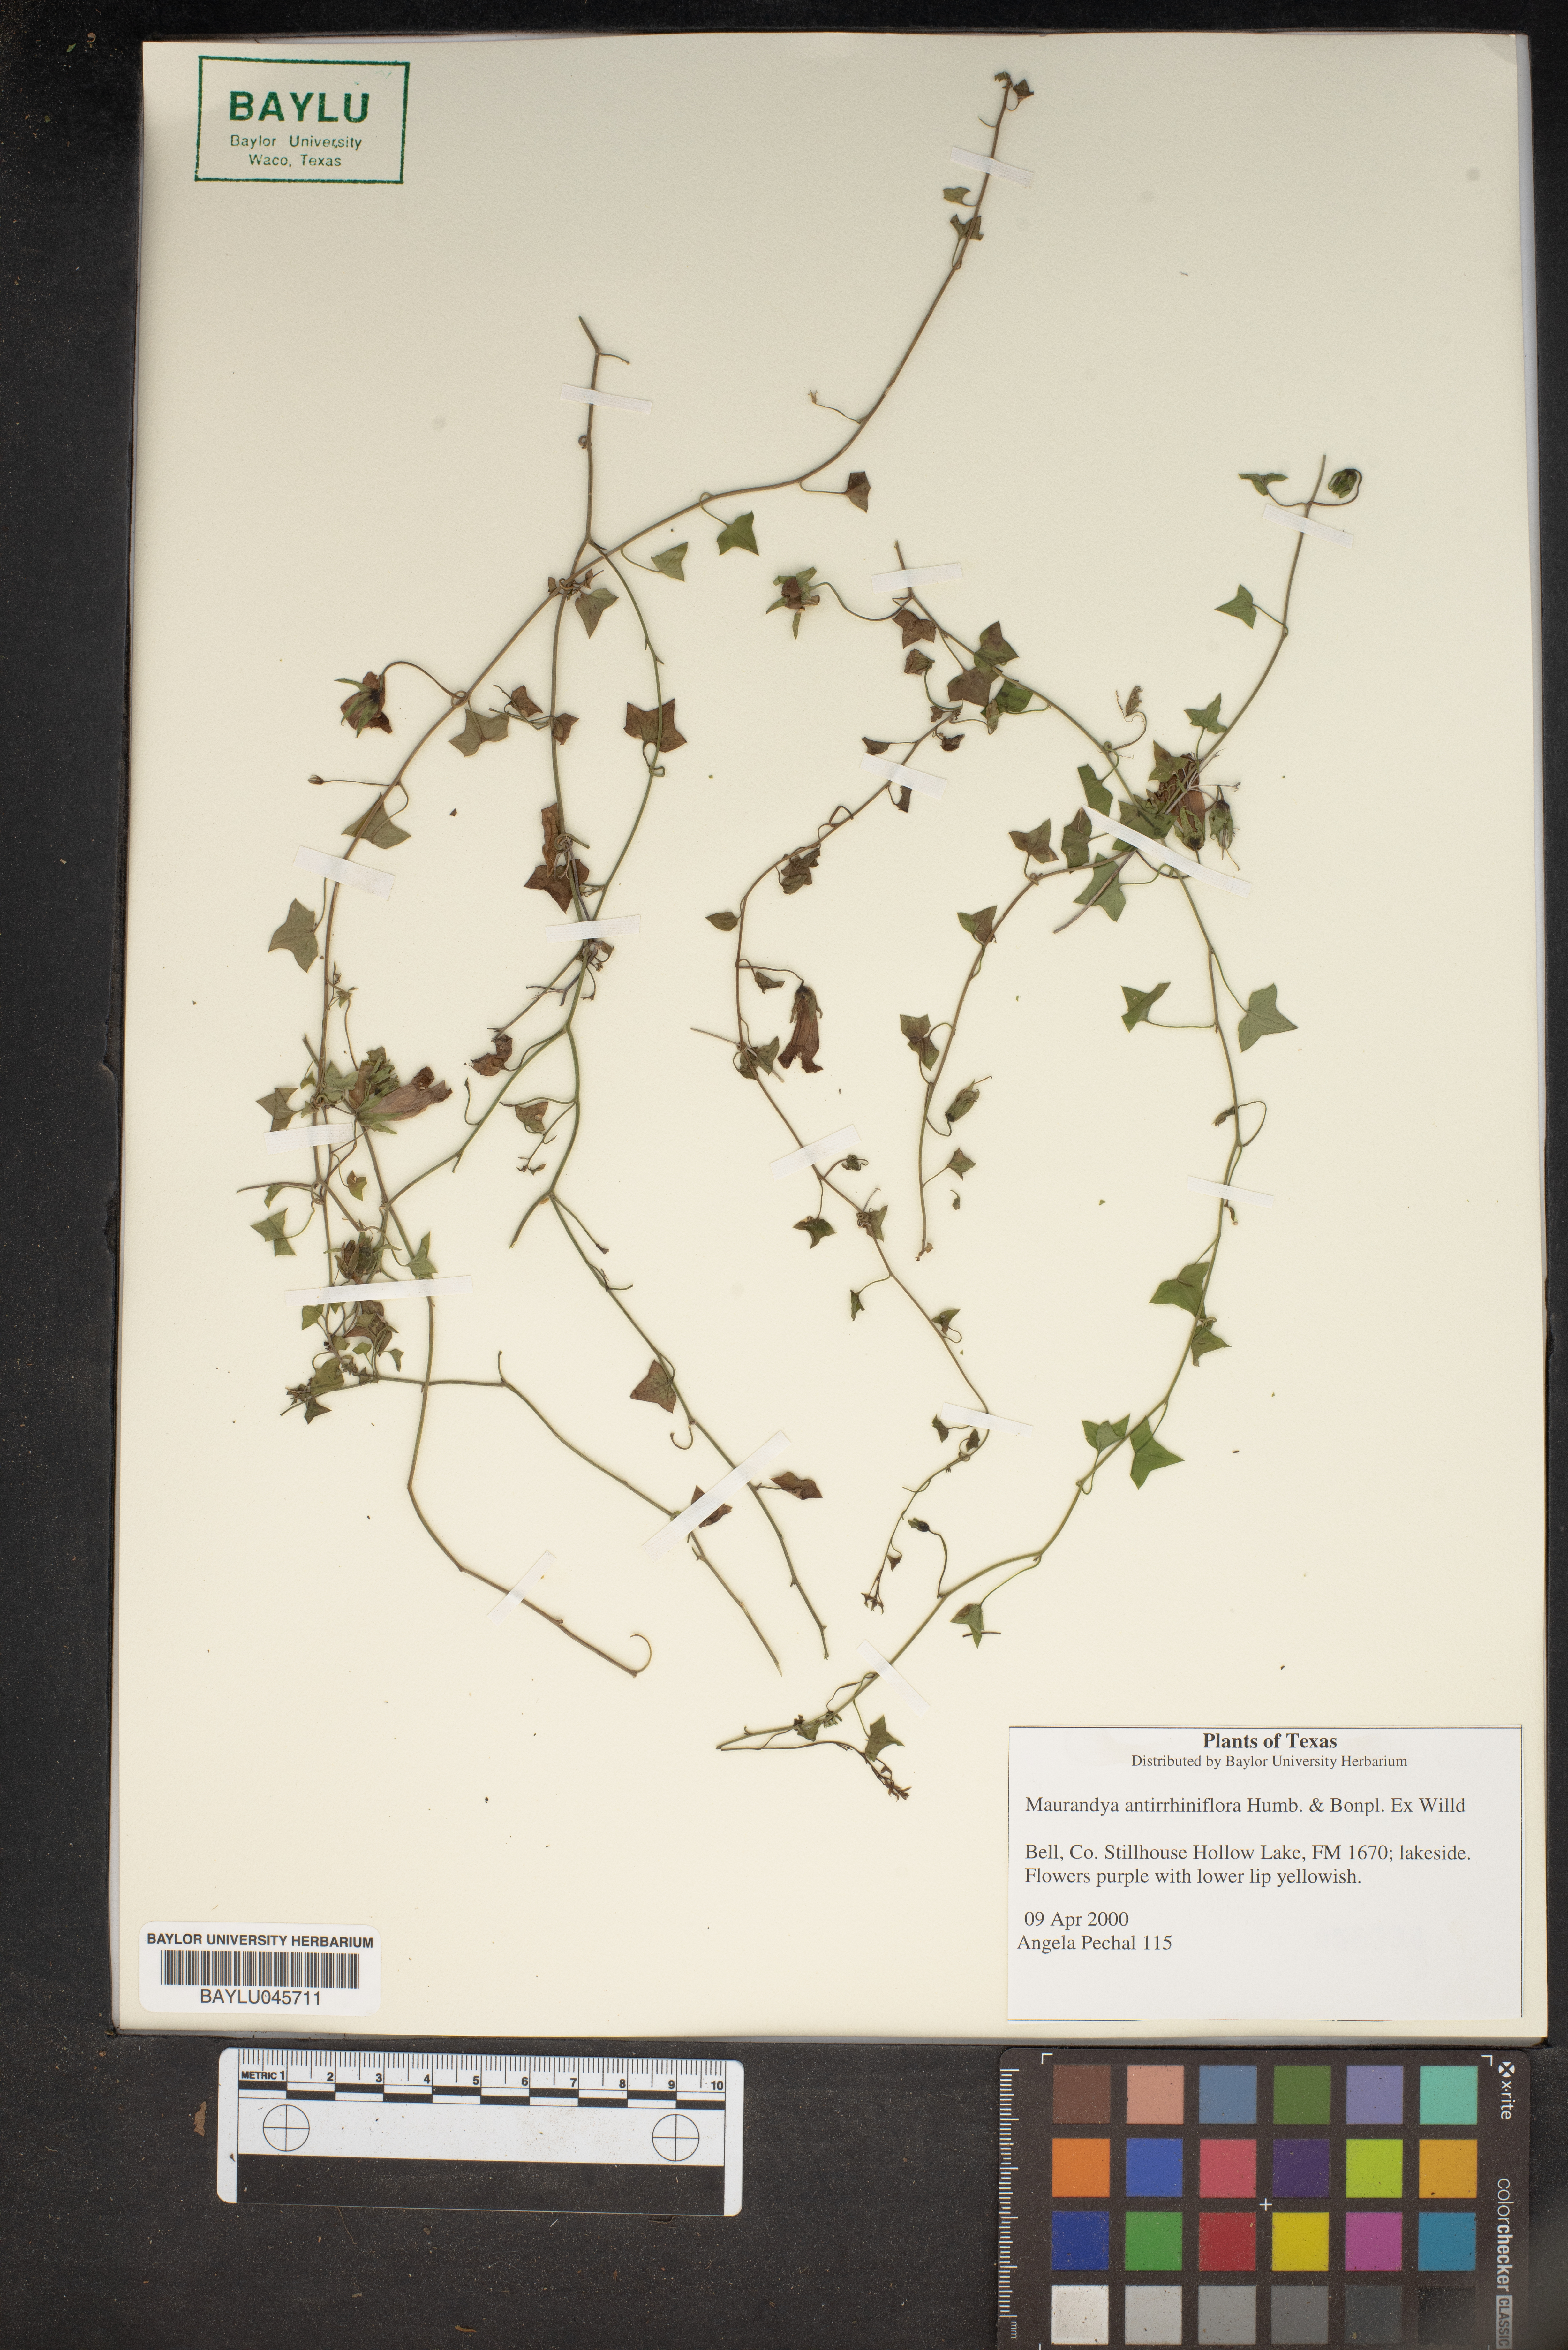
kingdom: Plantae
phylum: Tracheophyta
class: Magnoliopsida
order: Lamiales
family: Plantaginaceae
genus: Maurandella
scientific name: Maurandella antirrhiniflora
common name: Violet twining-snapdragon
